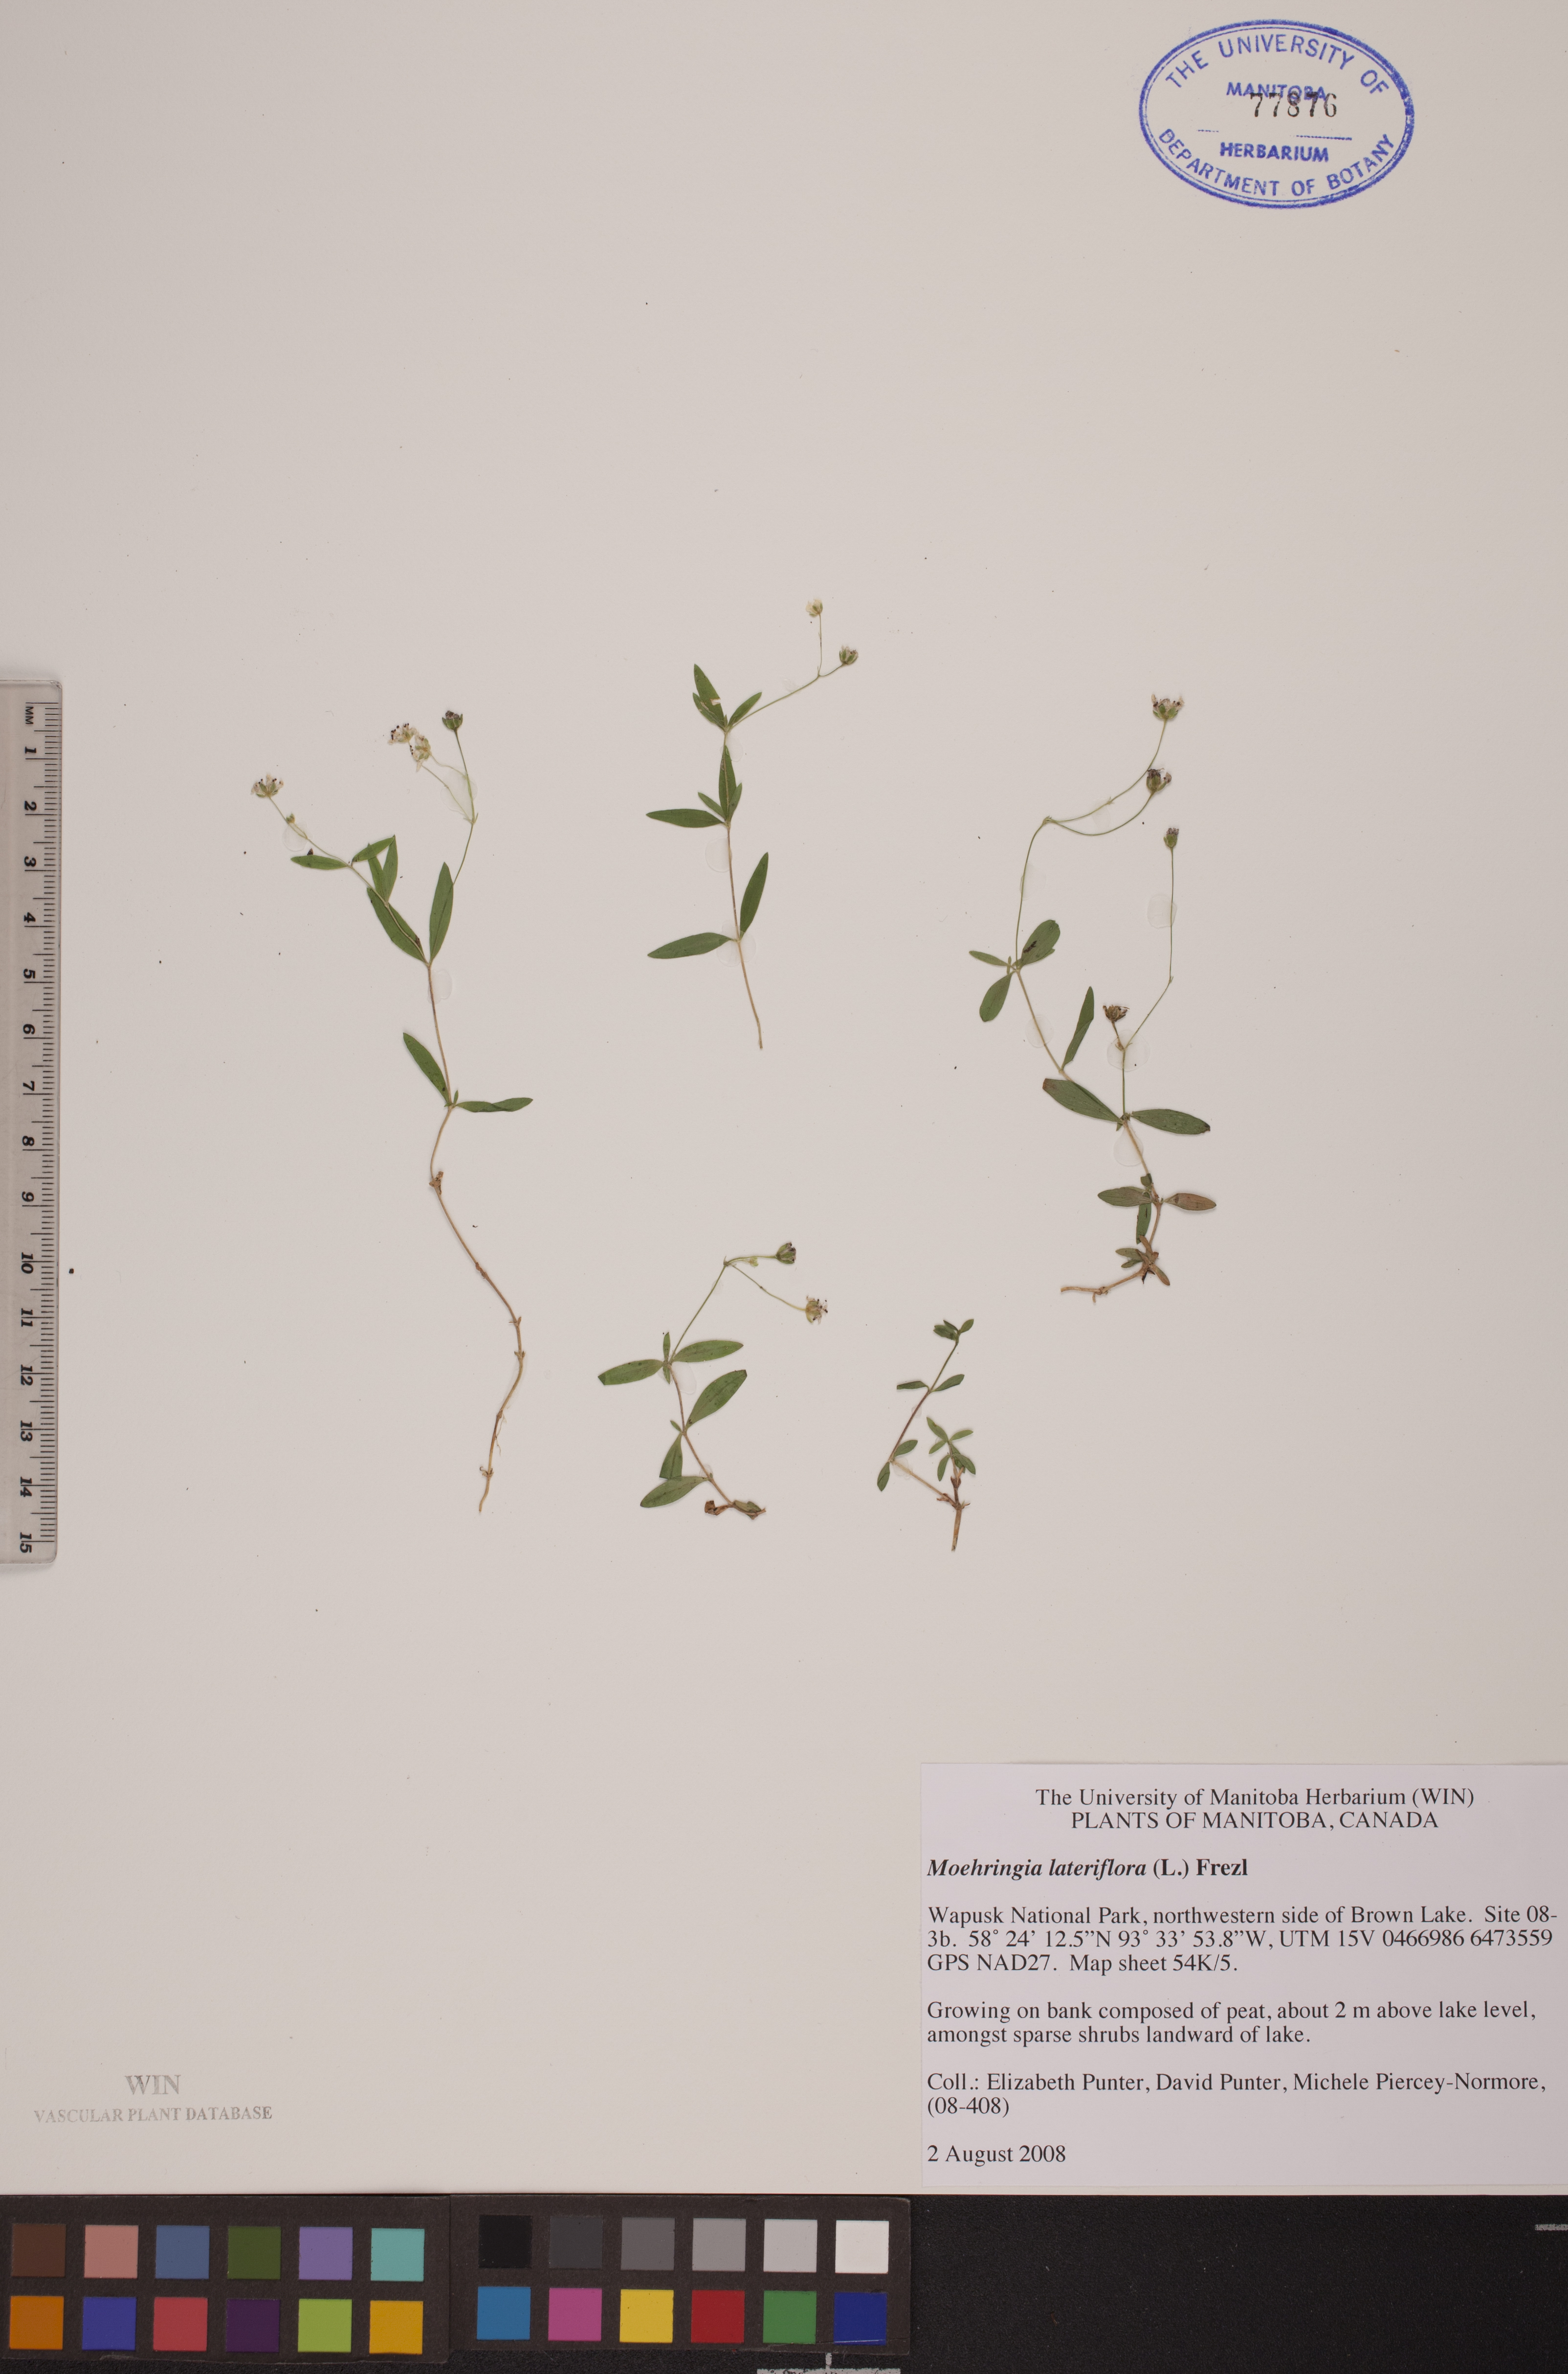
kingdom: Plantae
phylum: Tracheophyta
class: Magnoliopsida
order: Caryophyllales
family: Caryophyllaceae
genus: Moehringia
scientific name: Moehringia lateriflora
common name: Blunt-leaved sandwort
